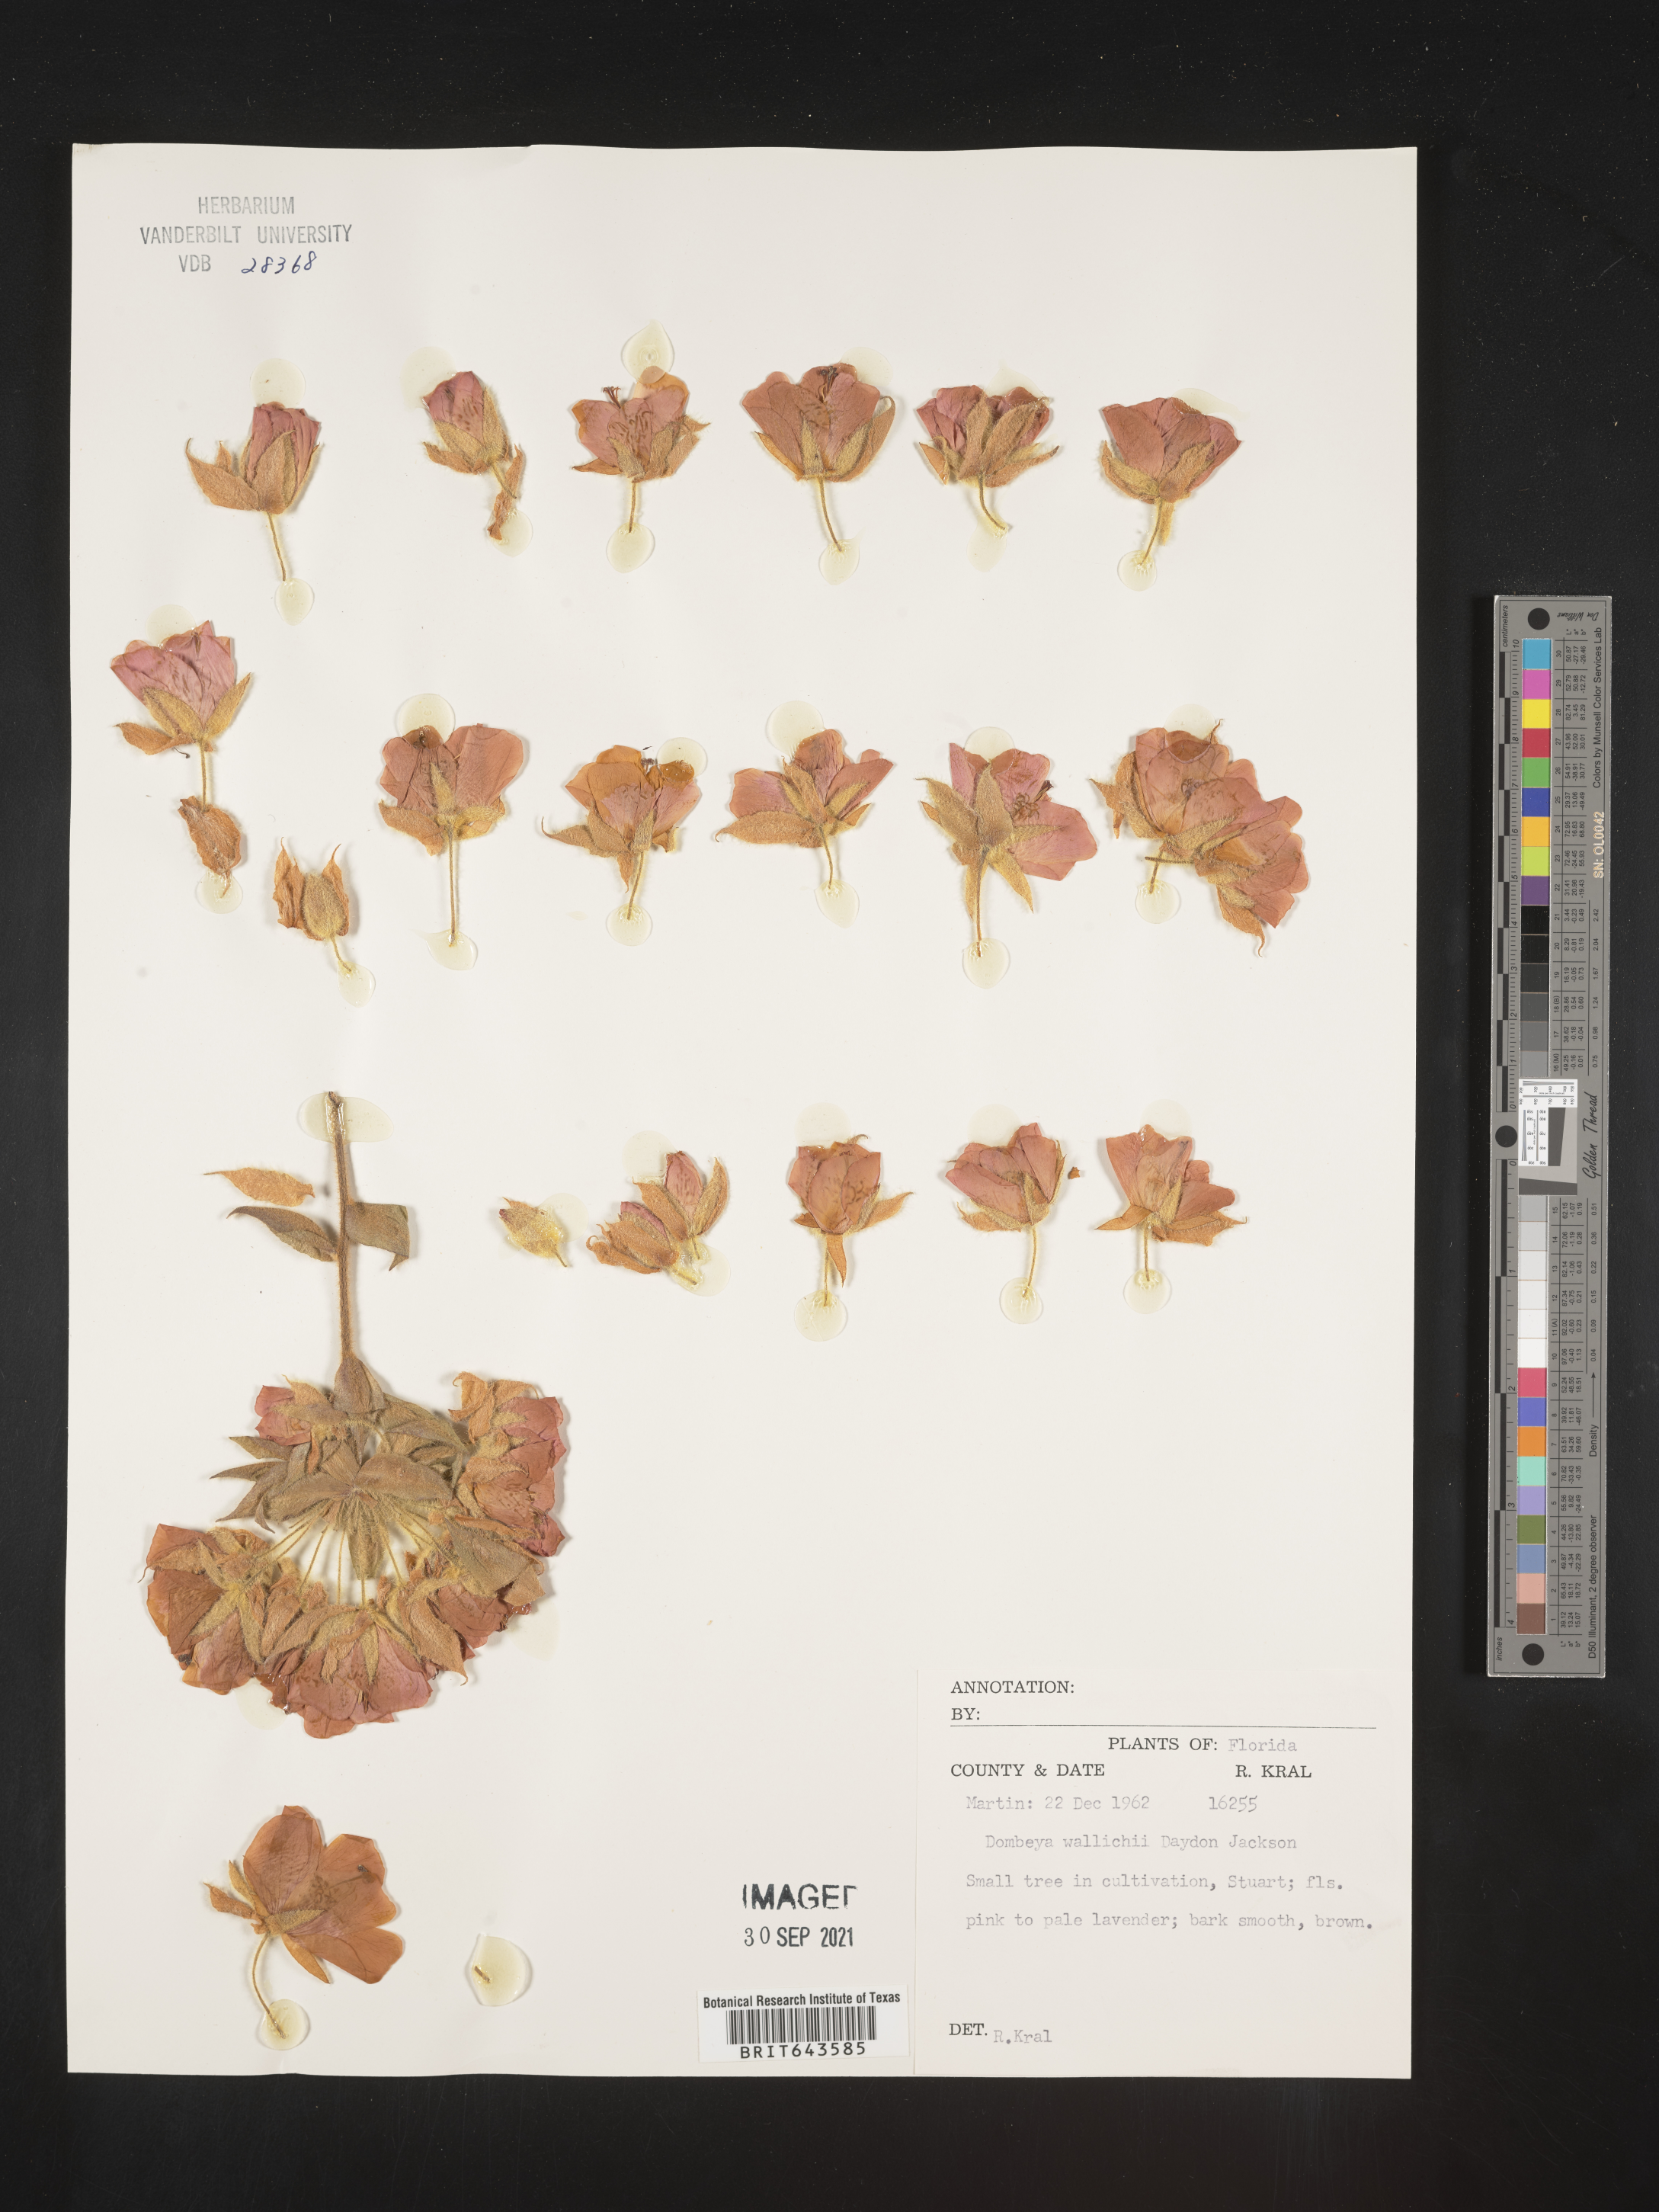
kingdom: Plantae
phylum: Tracheophyta
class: Magnoliopsida
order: Malvales
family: Malvaceae
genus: Dombeya
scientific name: Dombeya
